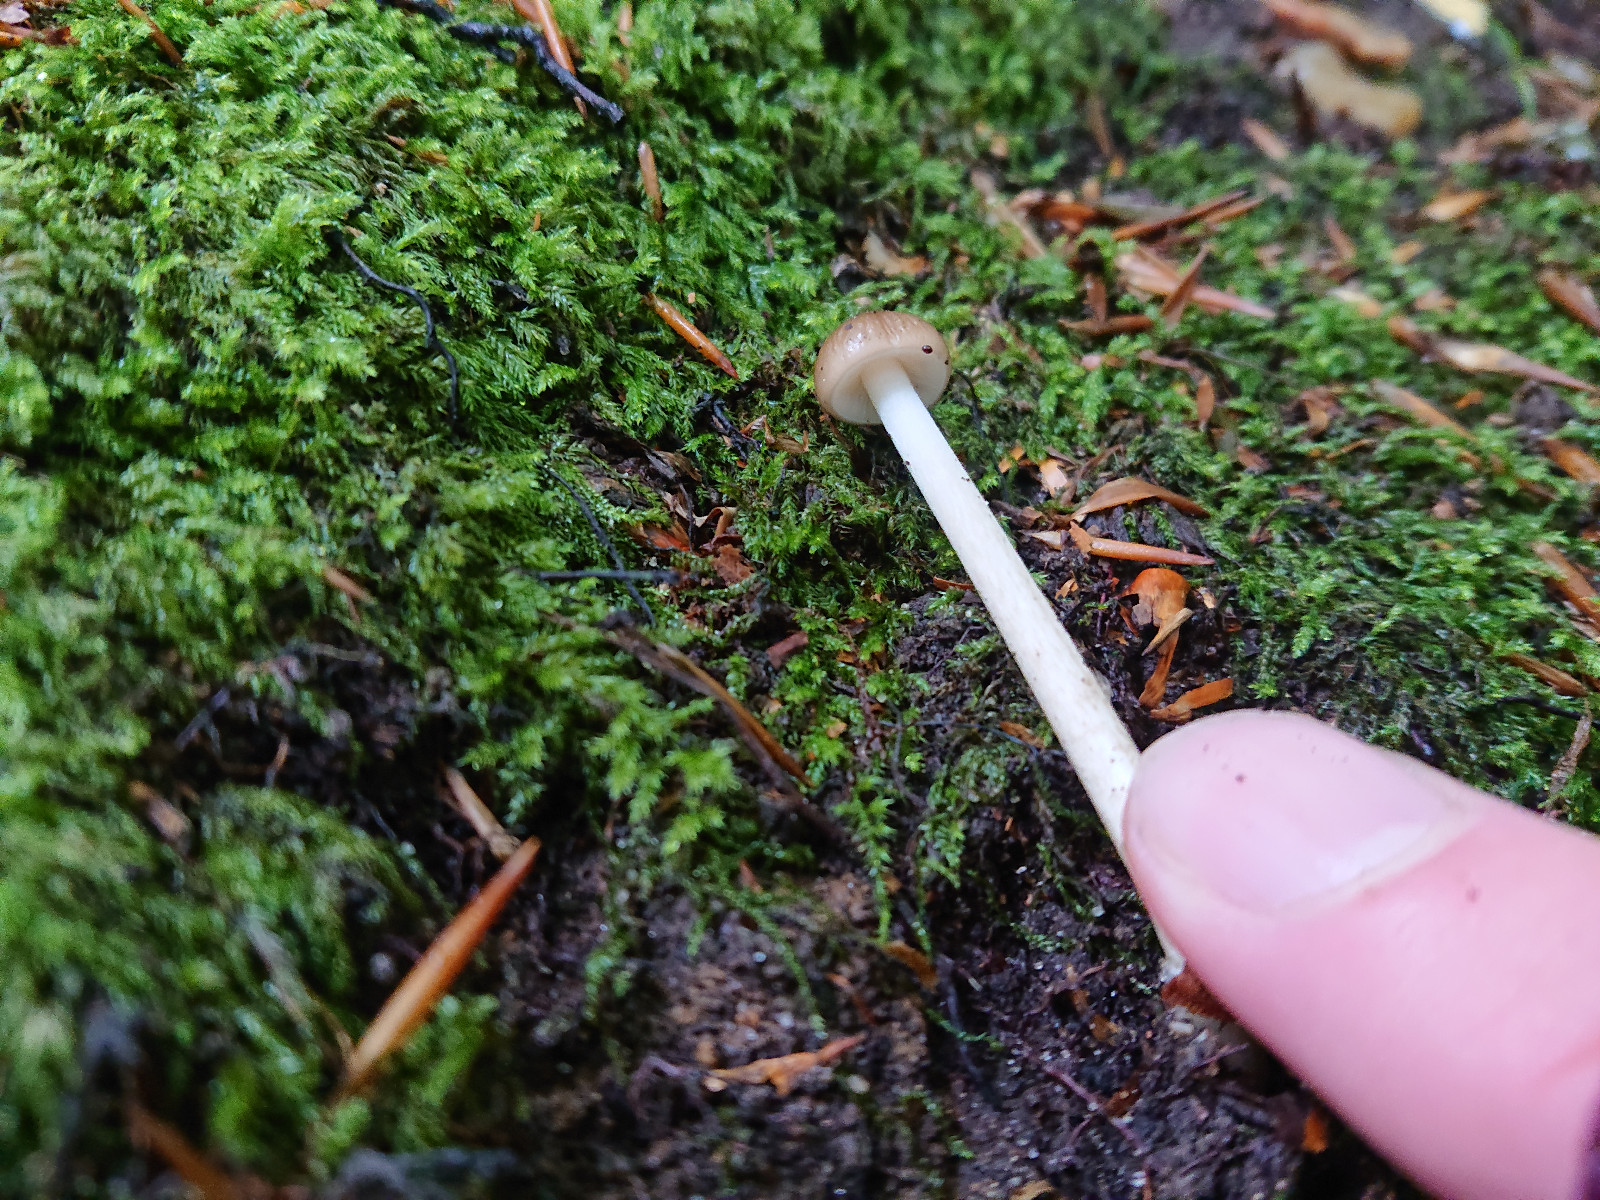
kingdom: Fungi
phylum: Basidiomycota
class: Agaricomycetes
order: Agaricales
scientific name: Agaricales
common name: champignonordenen
